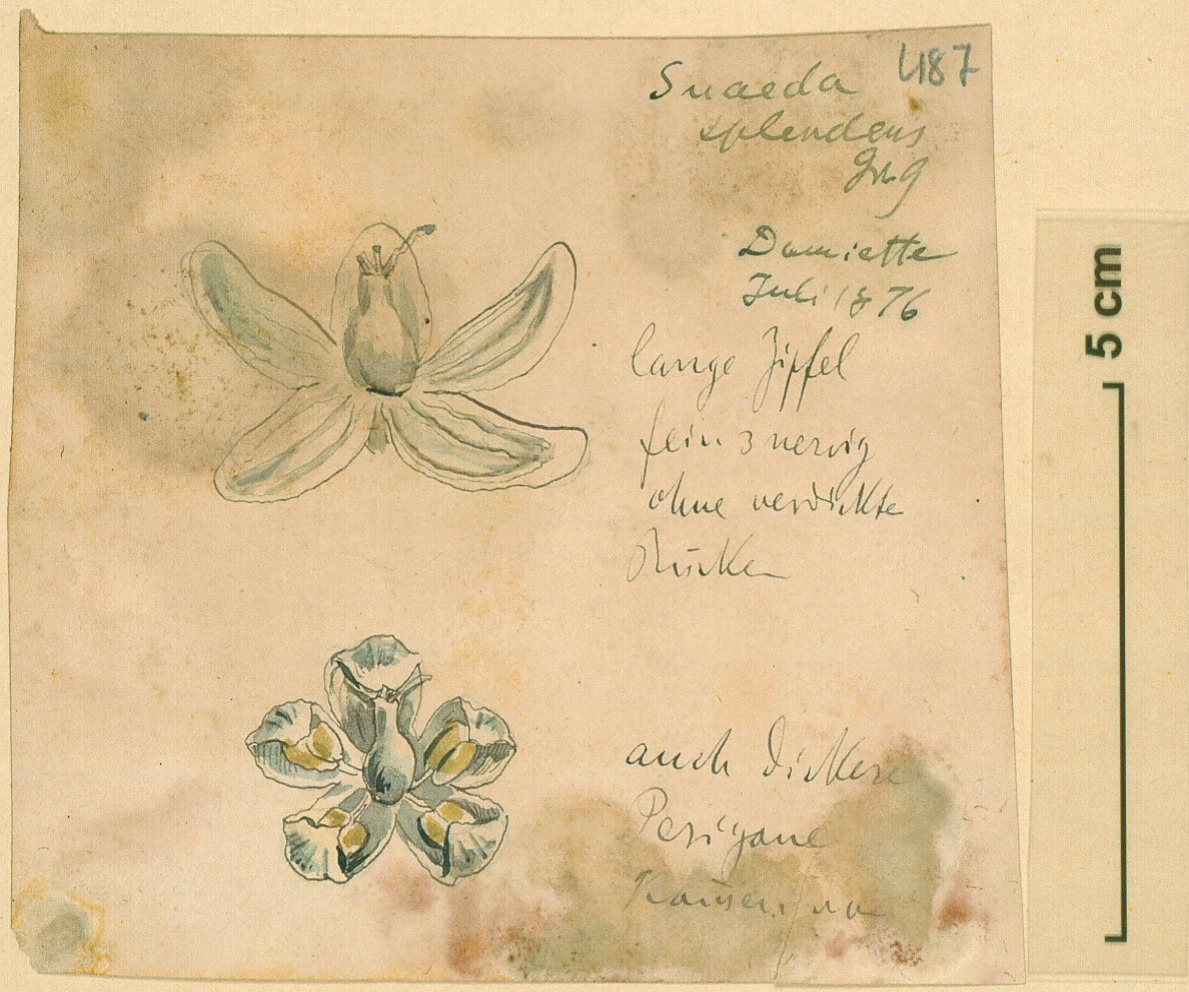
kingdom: Plantae
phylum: Tracheophyta
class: Magnoliopsida
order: Caryophyllales
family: Amaranthaceae
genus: Suaeda
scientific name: Suaeda splendens
